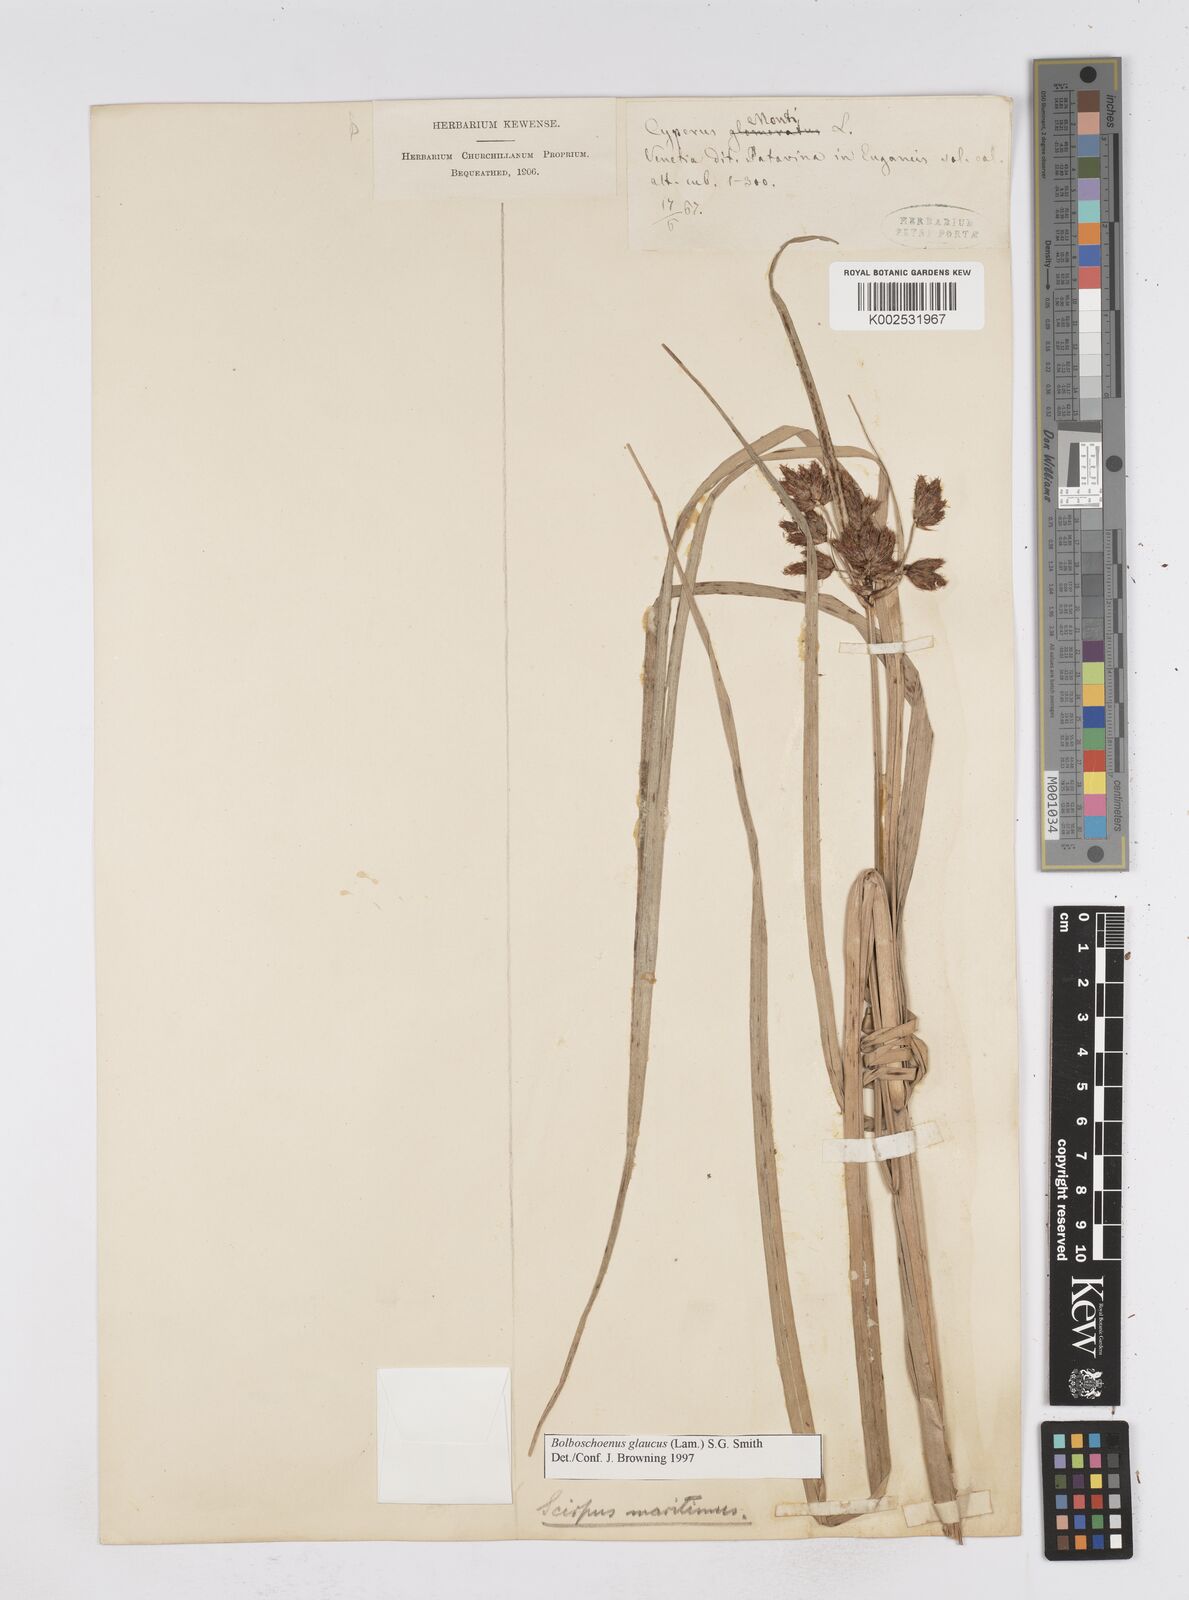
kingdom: Plantae
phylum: Tracheophyta
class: Liliopsida
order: Poales
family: Cyperaceae
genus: Bolboschoenus
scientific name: Bolboschoenus maritimus
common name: Sea club-rush
